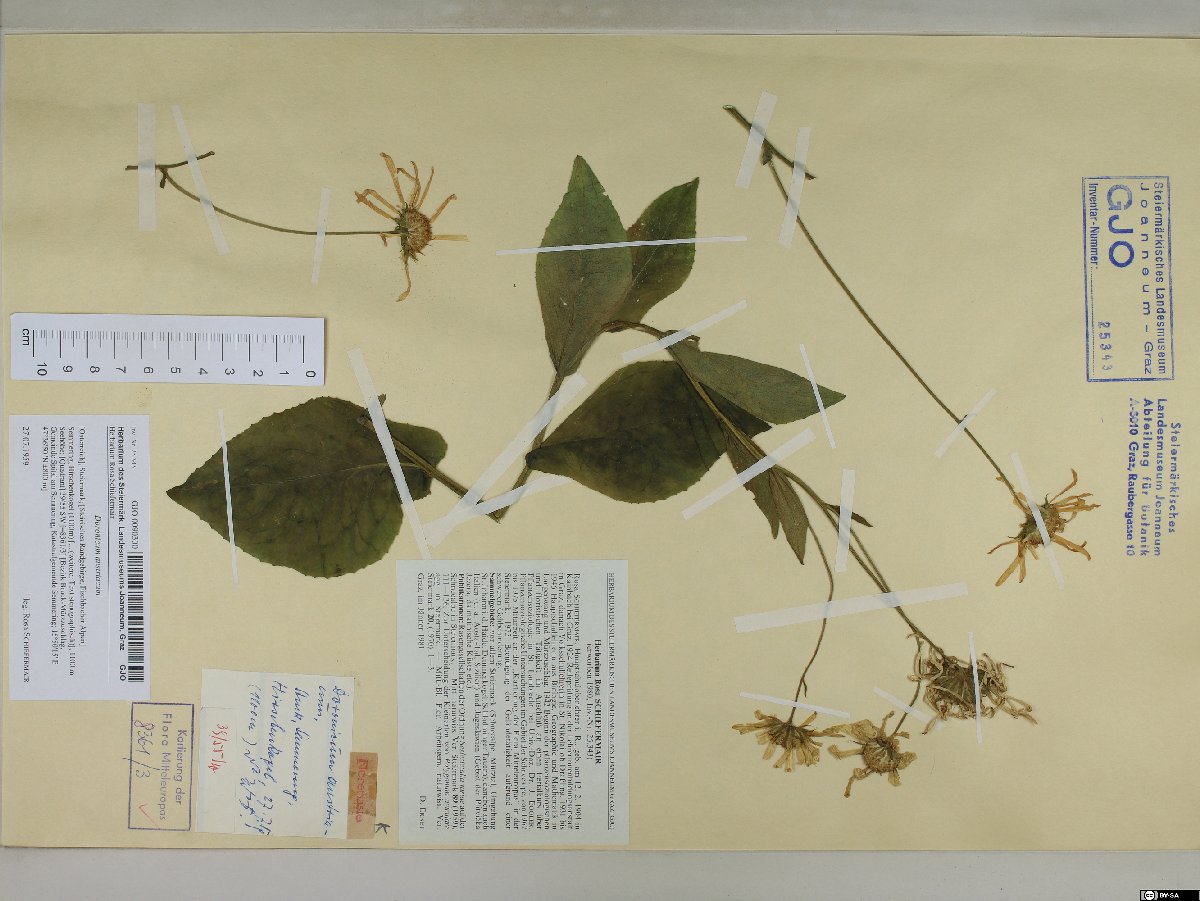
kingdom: Plantae
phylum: Tracheophyta
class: Magnoliopsida
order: Asterales
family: Asteraceae
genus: Doronicum
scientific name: Doronicum austriacum
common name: Austrian leopard's-bane
